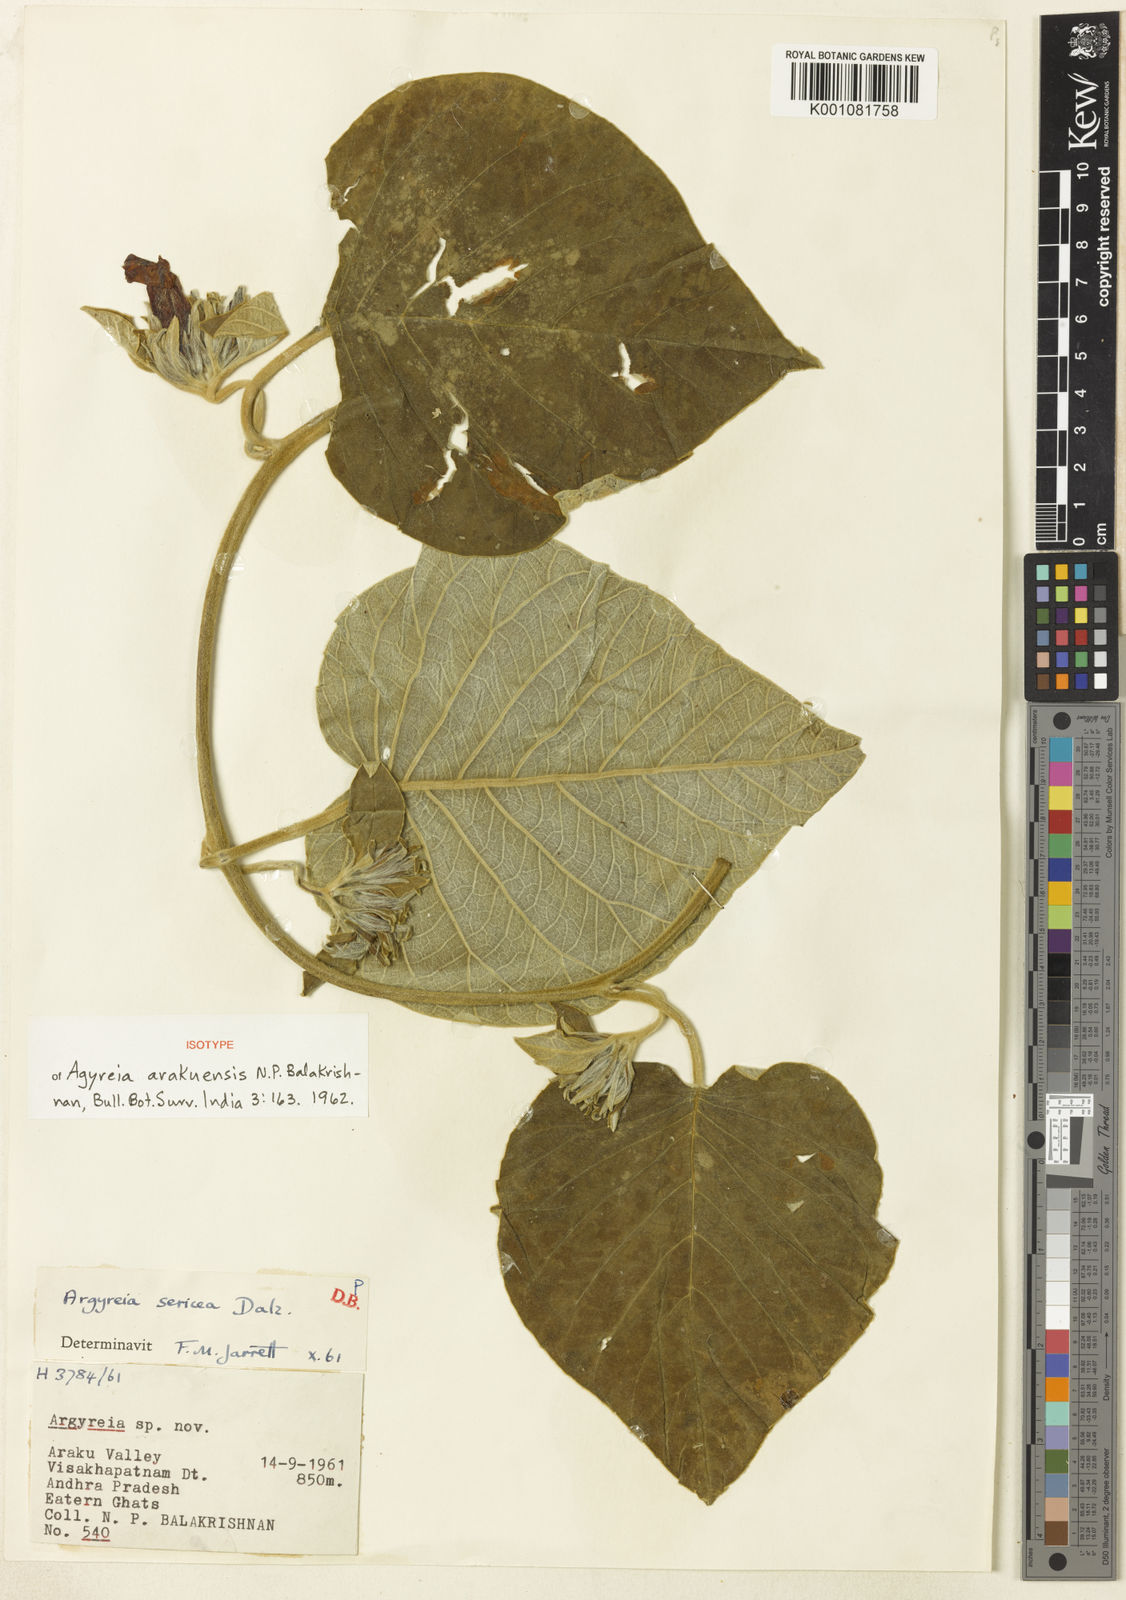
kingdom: Plantae
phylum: Tracheophyta
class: Magnoliopsida
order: Solanales
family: Convolvulaceae
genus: Argyreia
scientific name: Argyreia sericea
